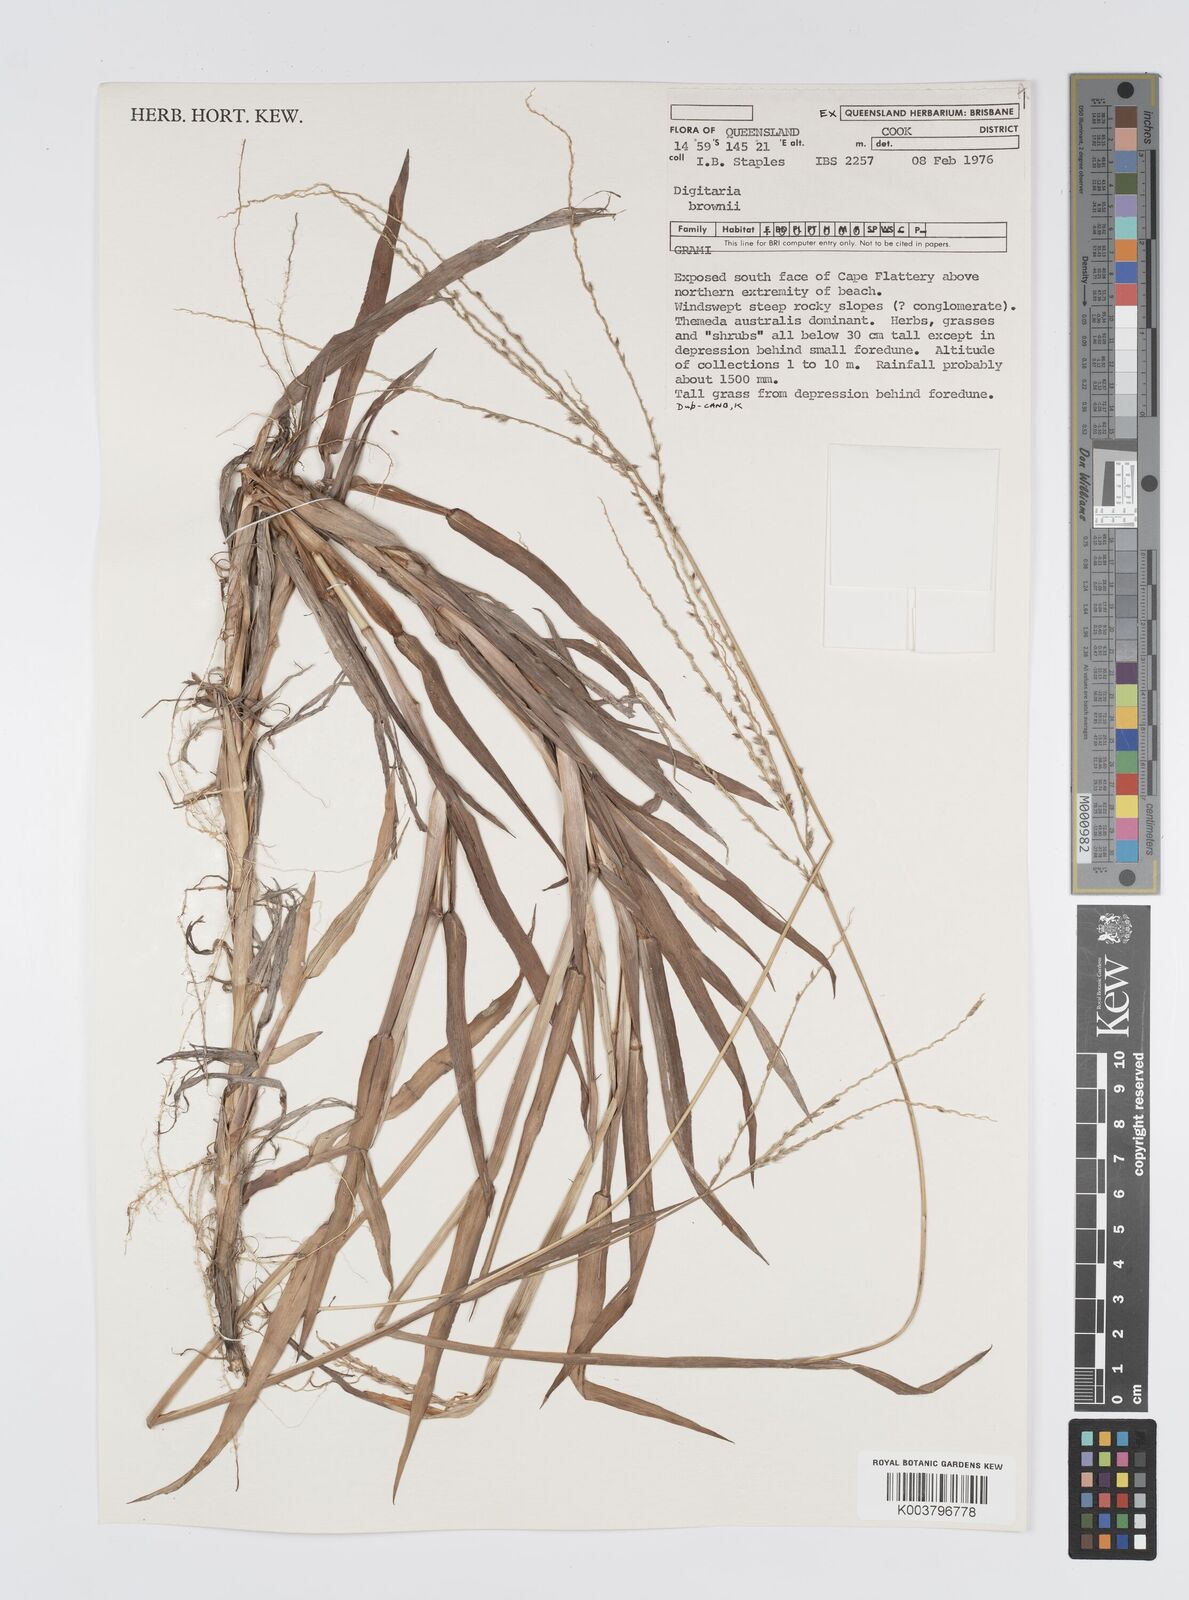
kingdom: Plantae
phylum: Tracheophyta
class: Liliopsida
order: Poales
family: Poaceae
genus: Digitaria
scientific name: Digitaria brownii
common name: Cotton grass
